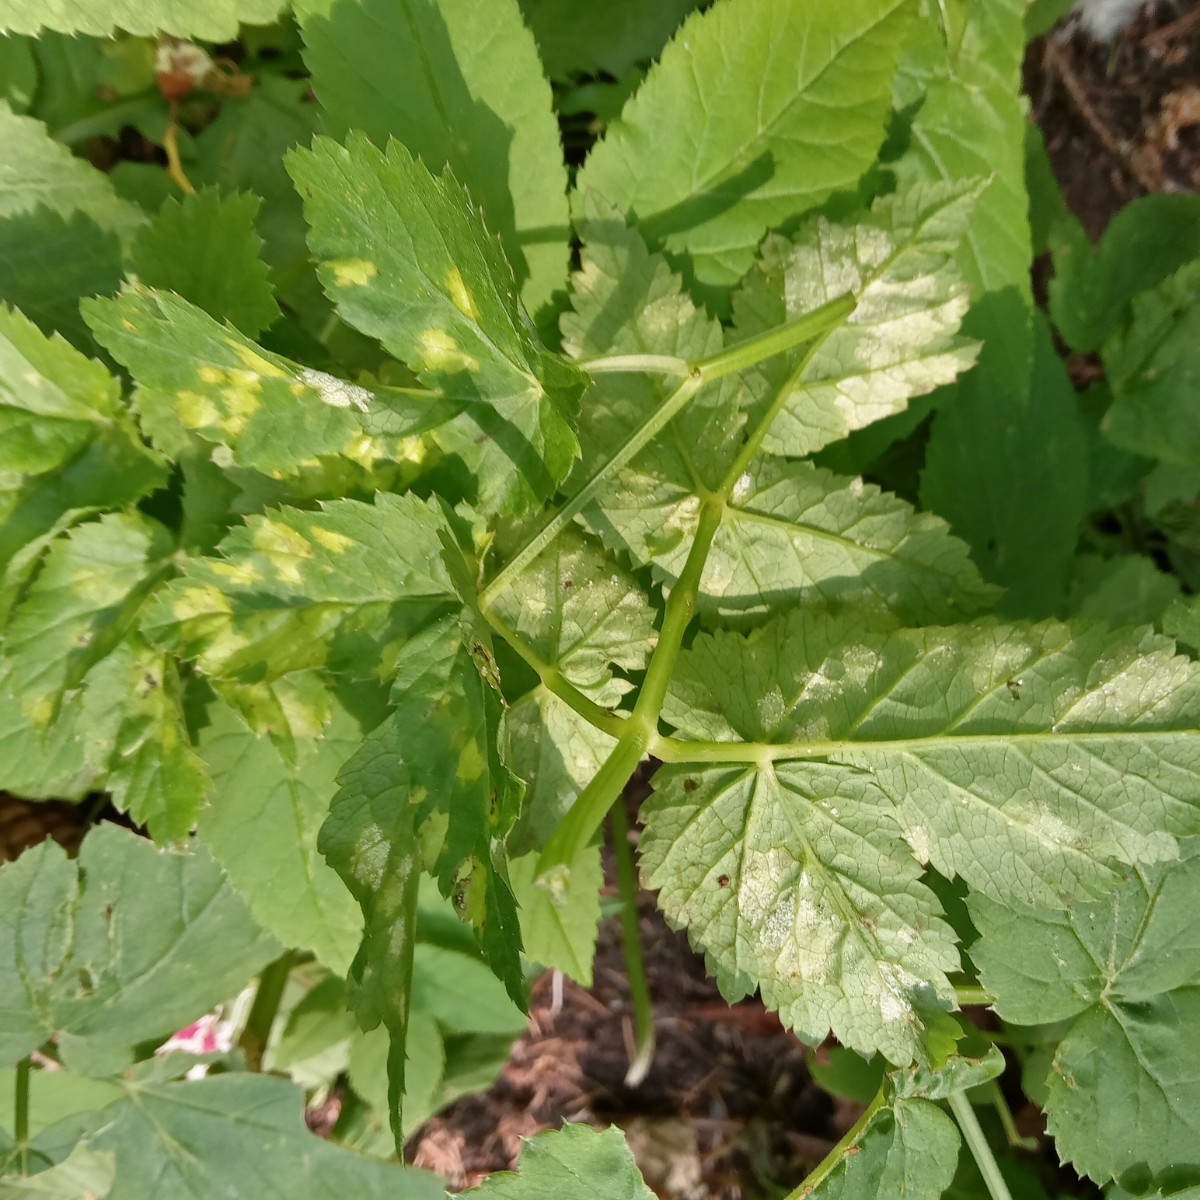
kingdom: Chromista
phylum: Oomycota
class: Peronosporea
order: Peronosporales
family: Peronosporaceae
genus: Peronospora
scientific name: Peronospora crustosa
